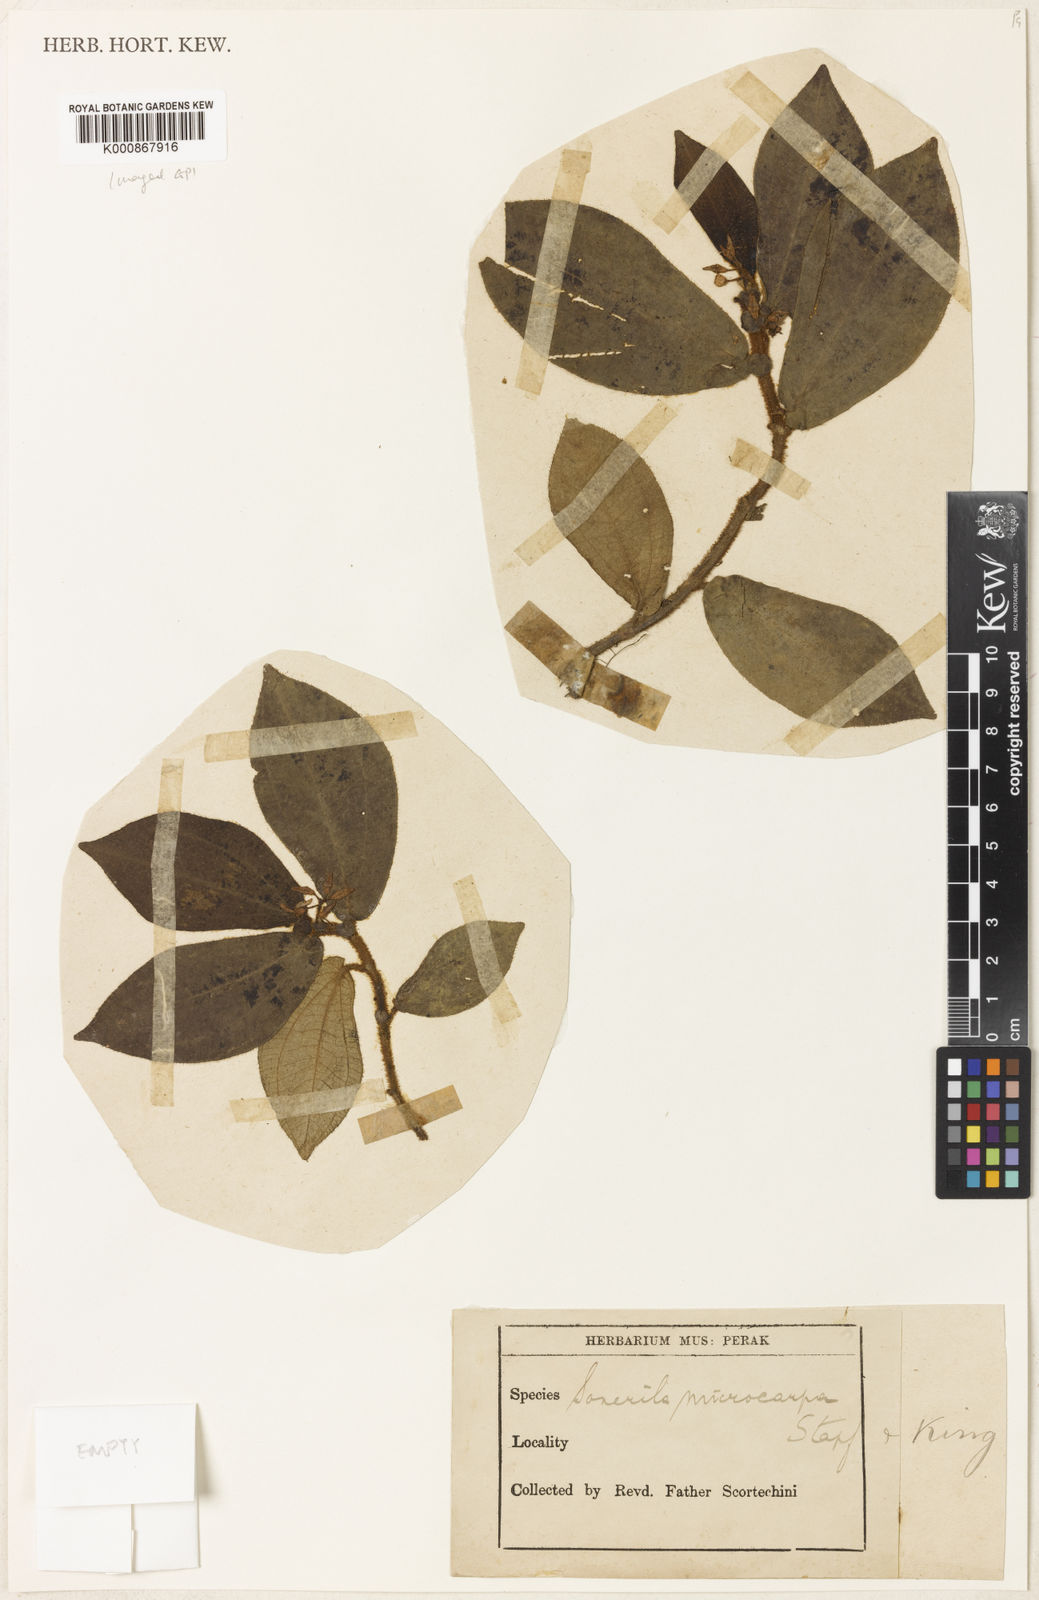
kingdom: Plantae
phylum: Tracheophyta
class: Magnoliopsida
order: Myrtales
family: Melastomataceae
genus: Sonerila
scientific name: Sonerila microcarpa
